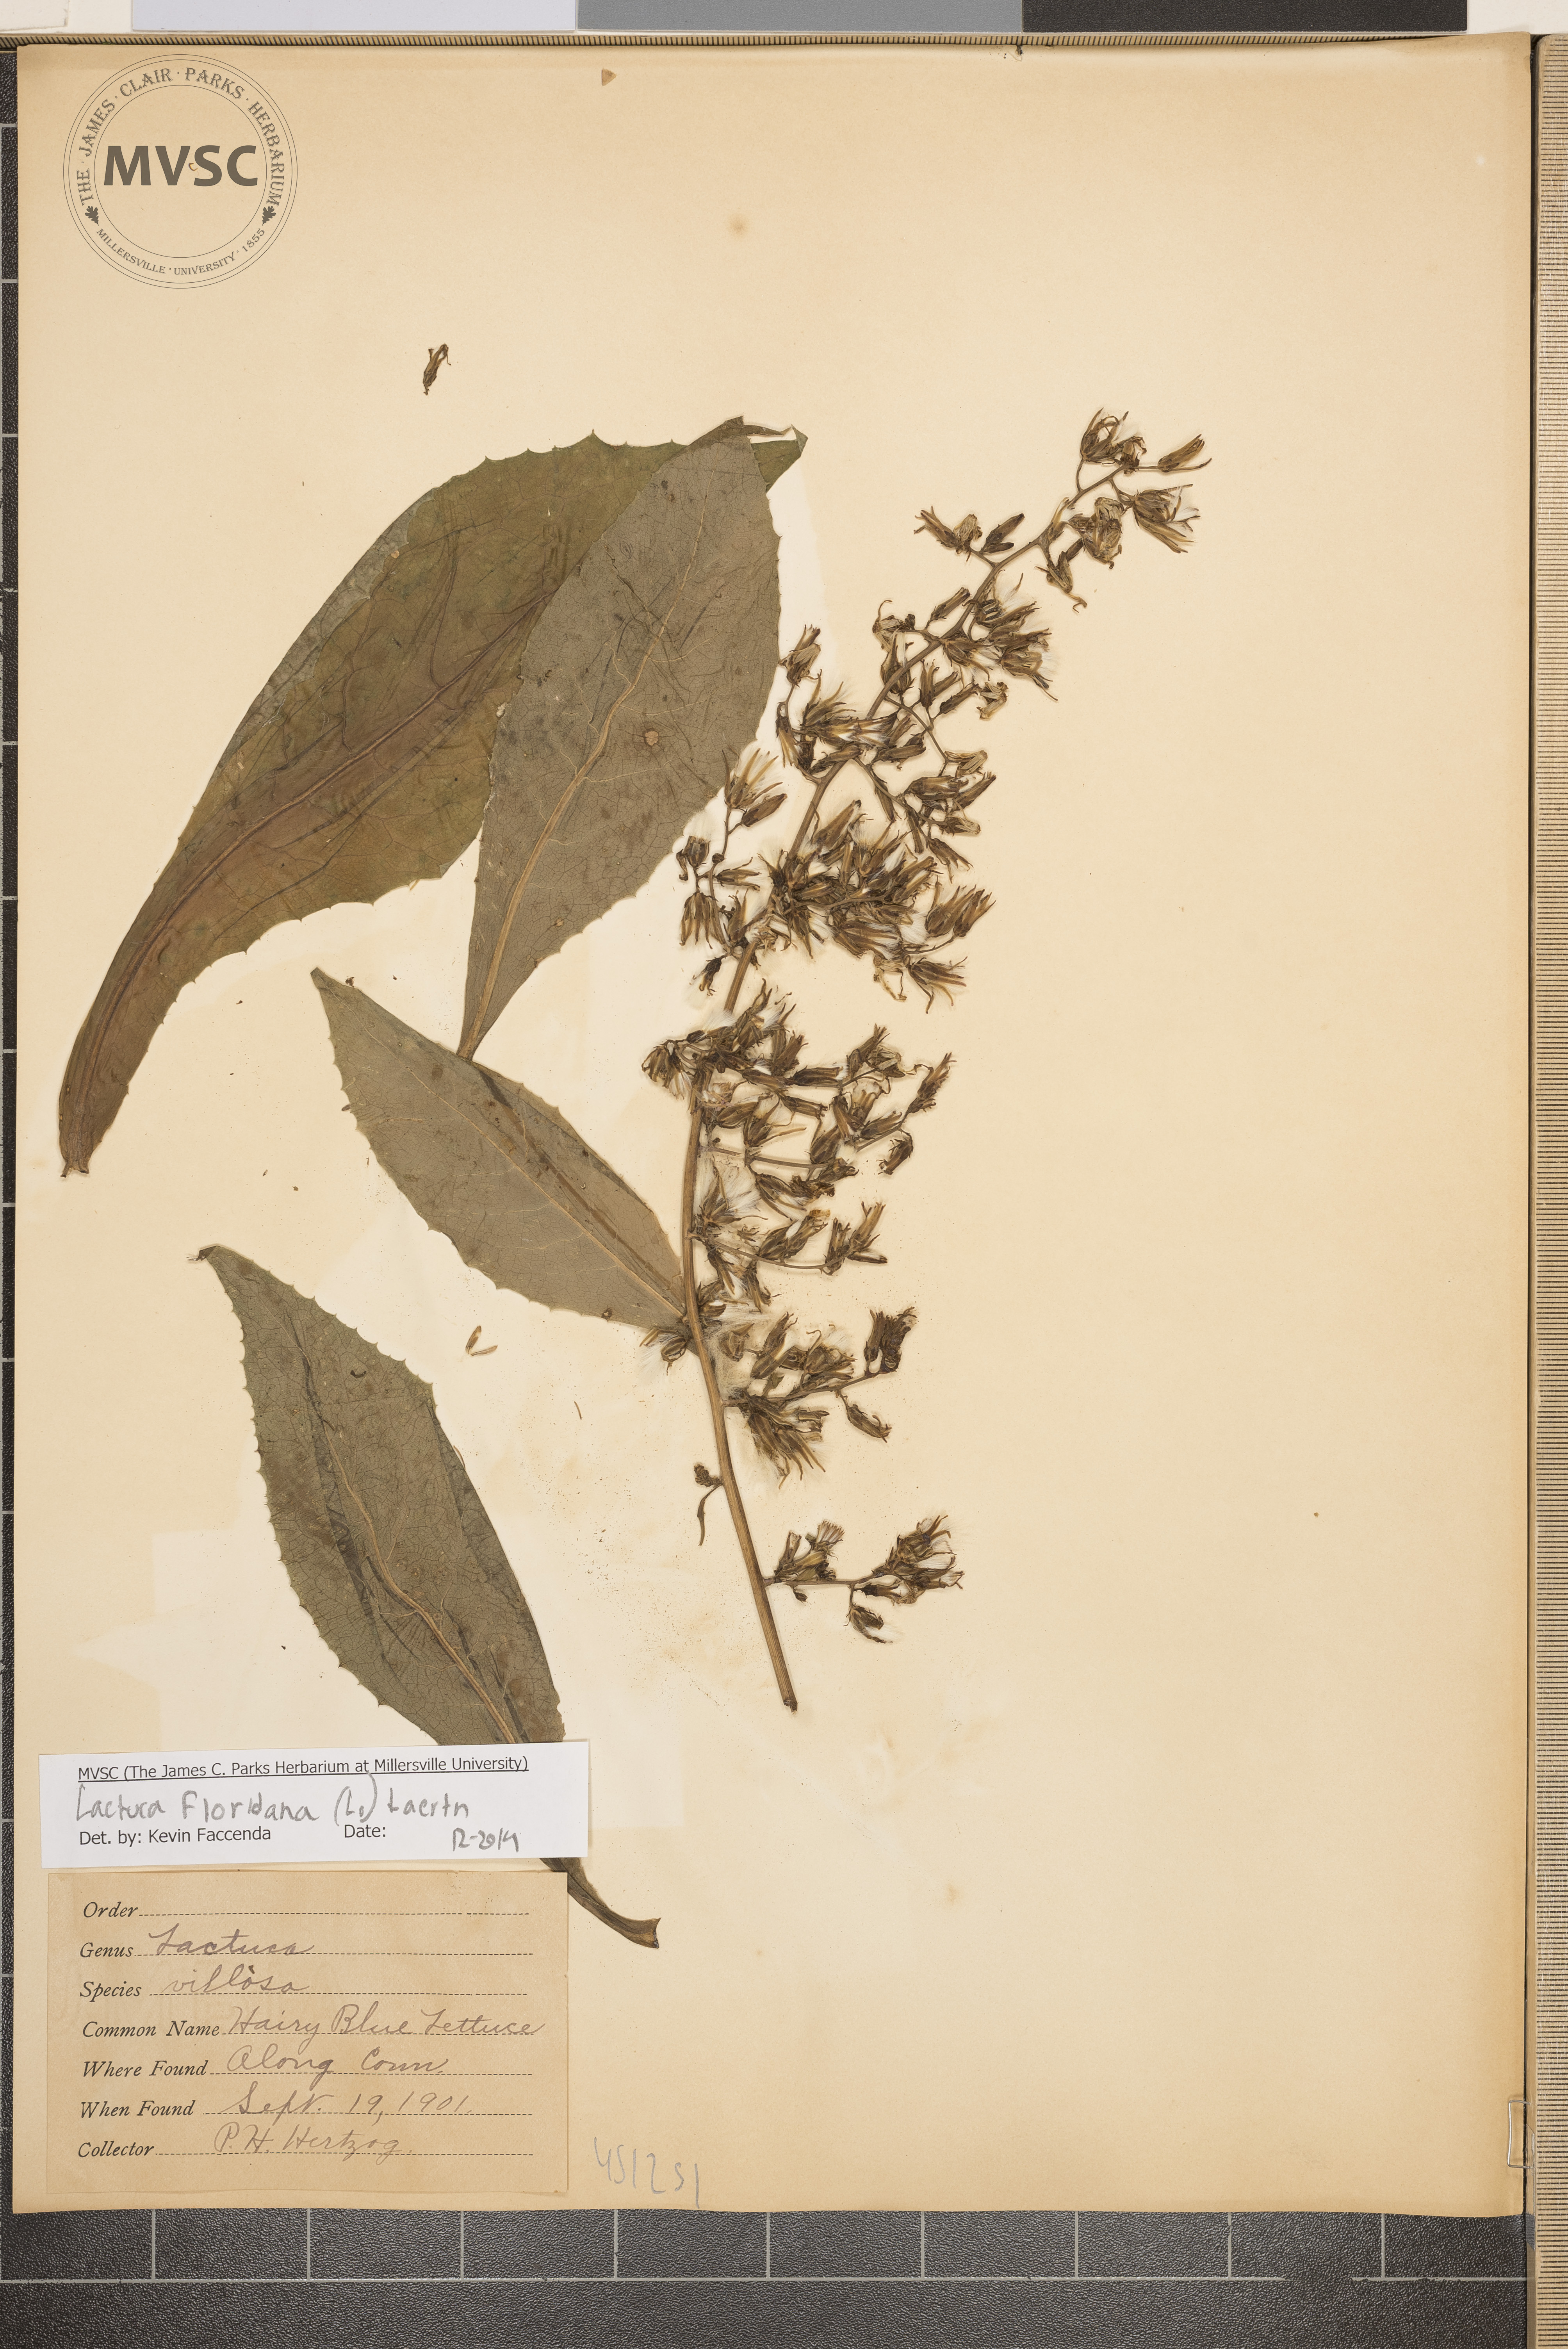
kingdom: Plantae
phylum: Tracheophyta
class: Magnoliopsida
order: Asterales
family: Asteraceae
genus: Lactuca
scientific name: Lactuca floridana
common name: Woodland lettuce
